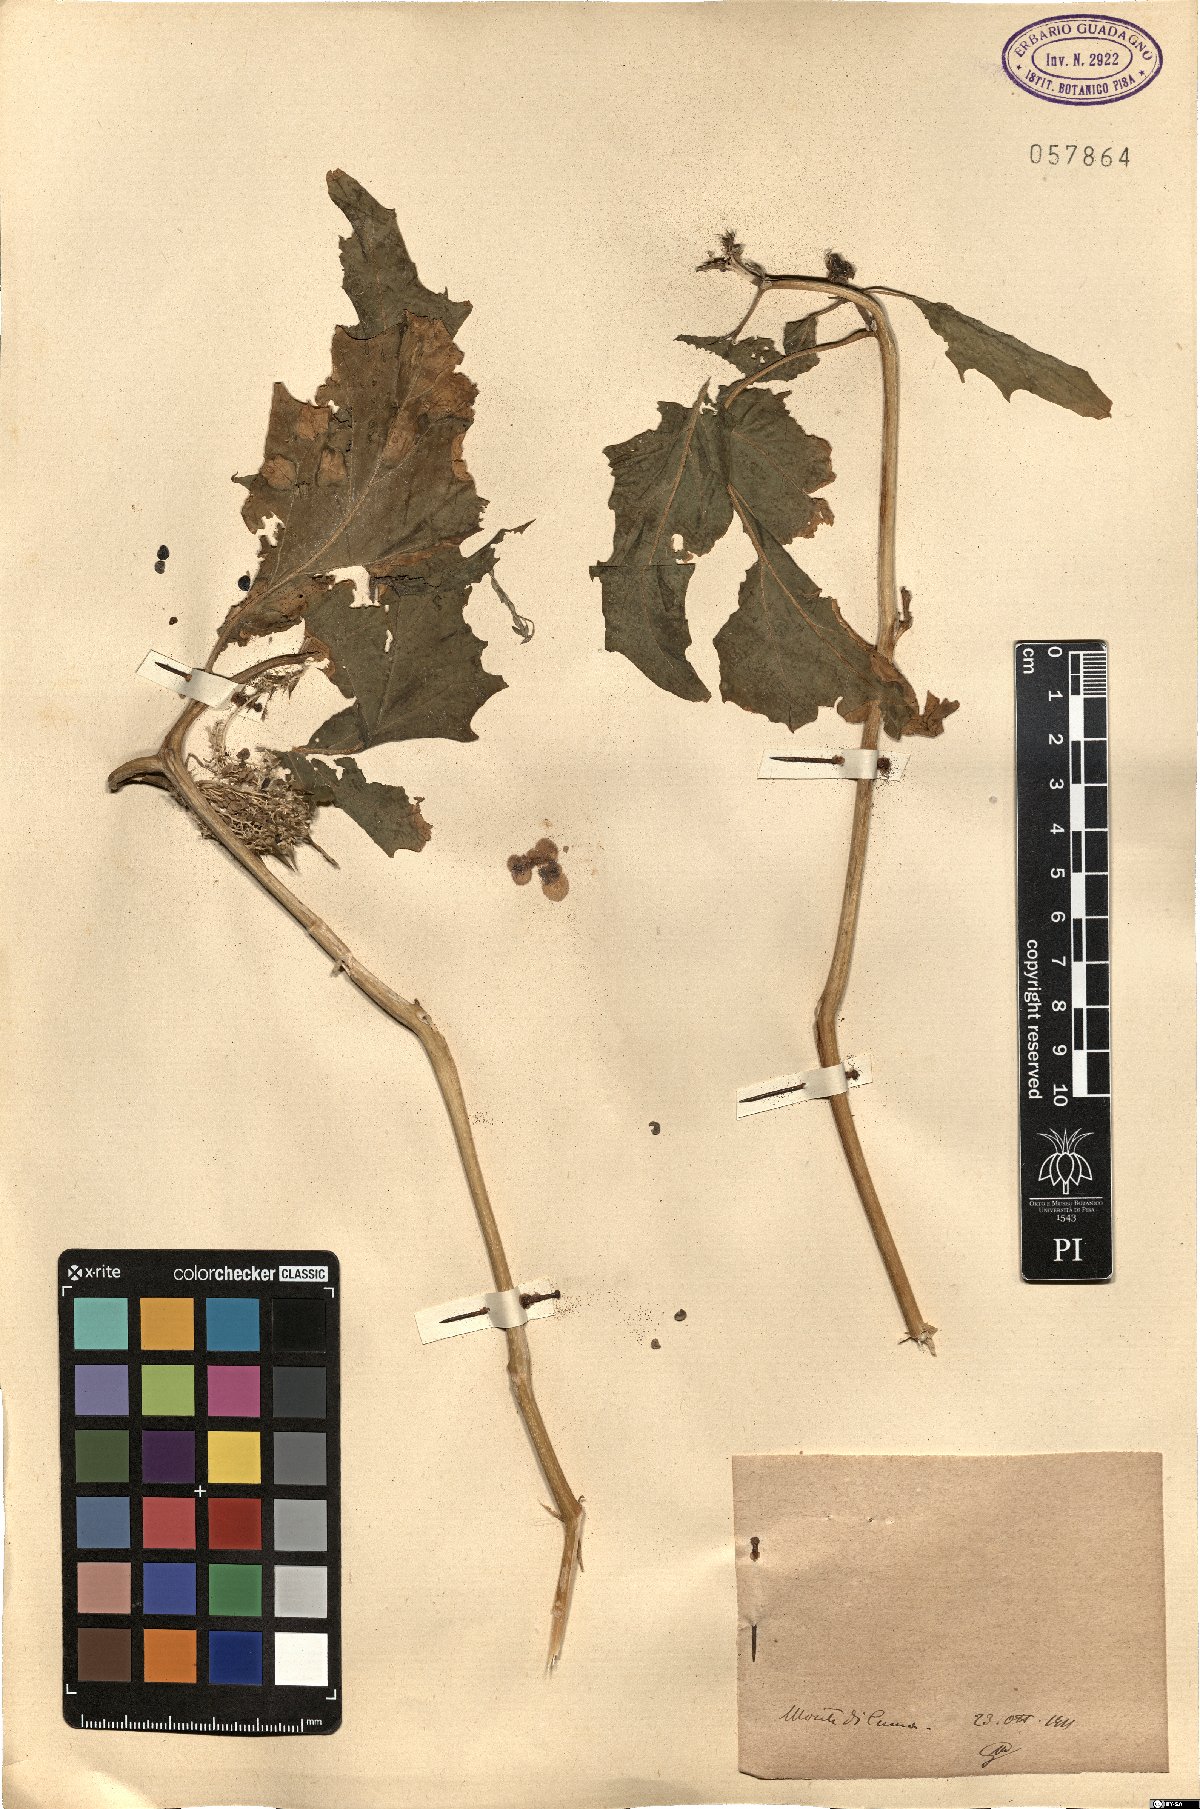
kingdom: Plantae
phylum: Tracheophyta
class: Magnoliopsida
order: Solanales
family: Solanaceae
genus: Datura
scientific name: Datura
